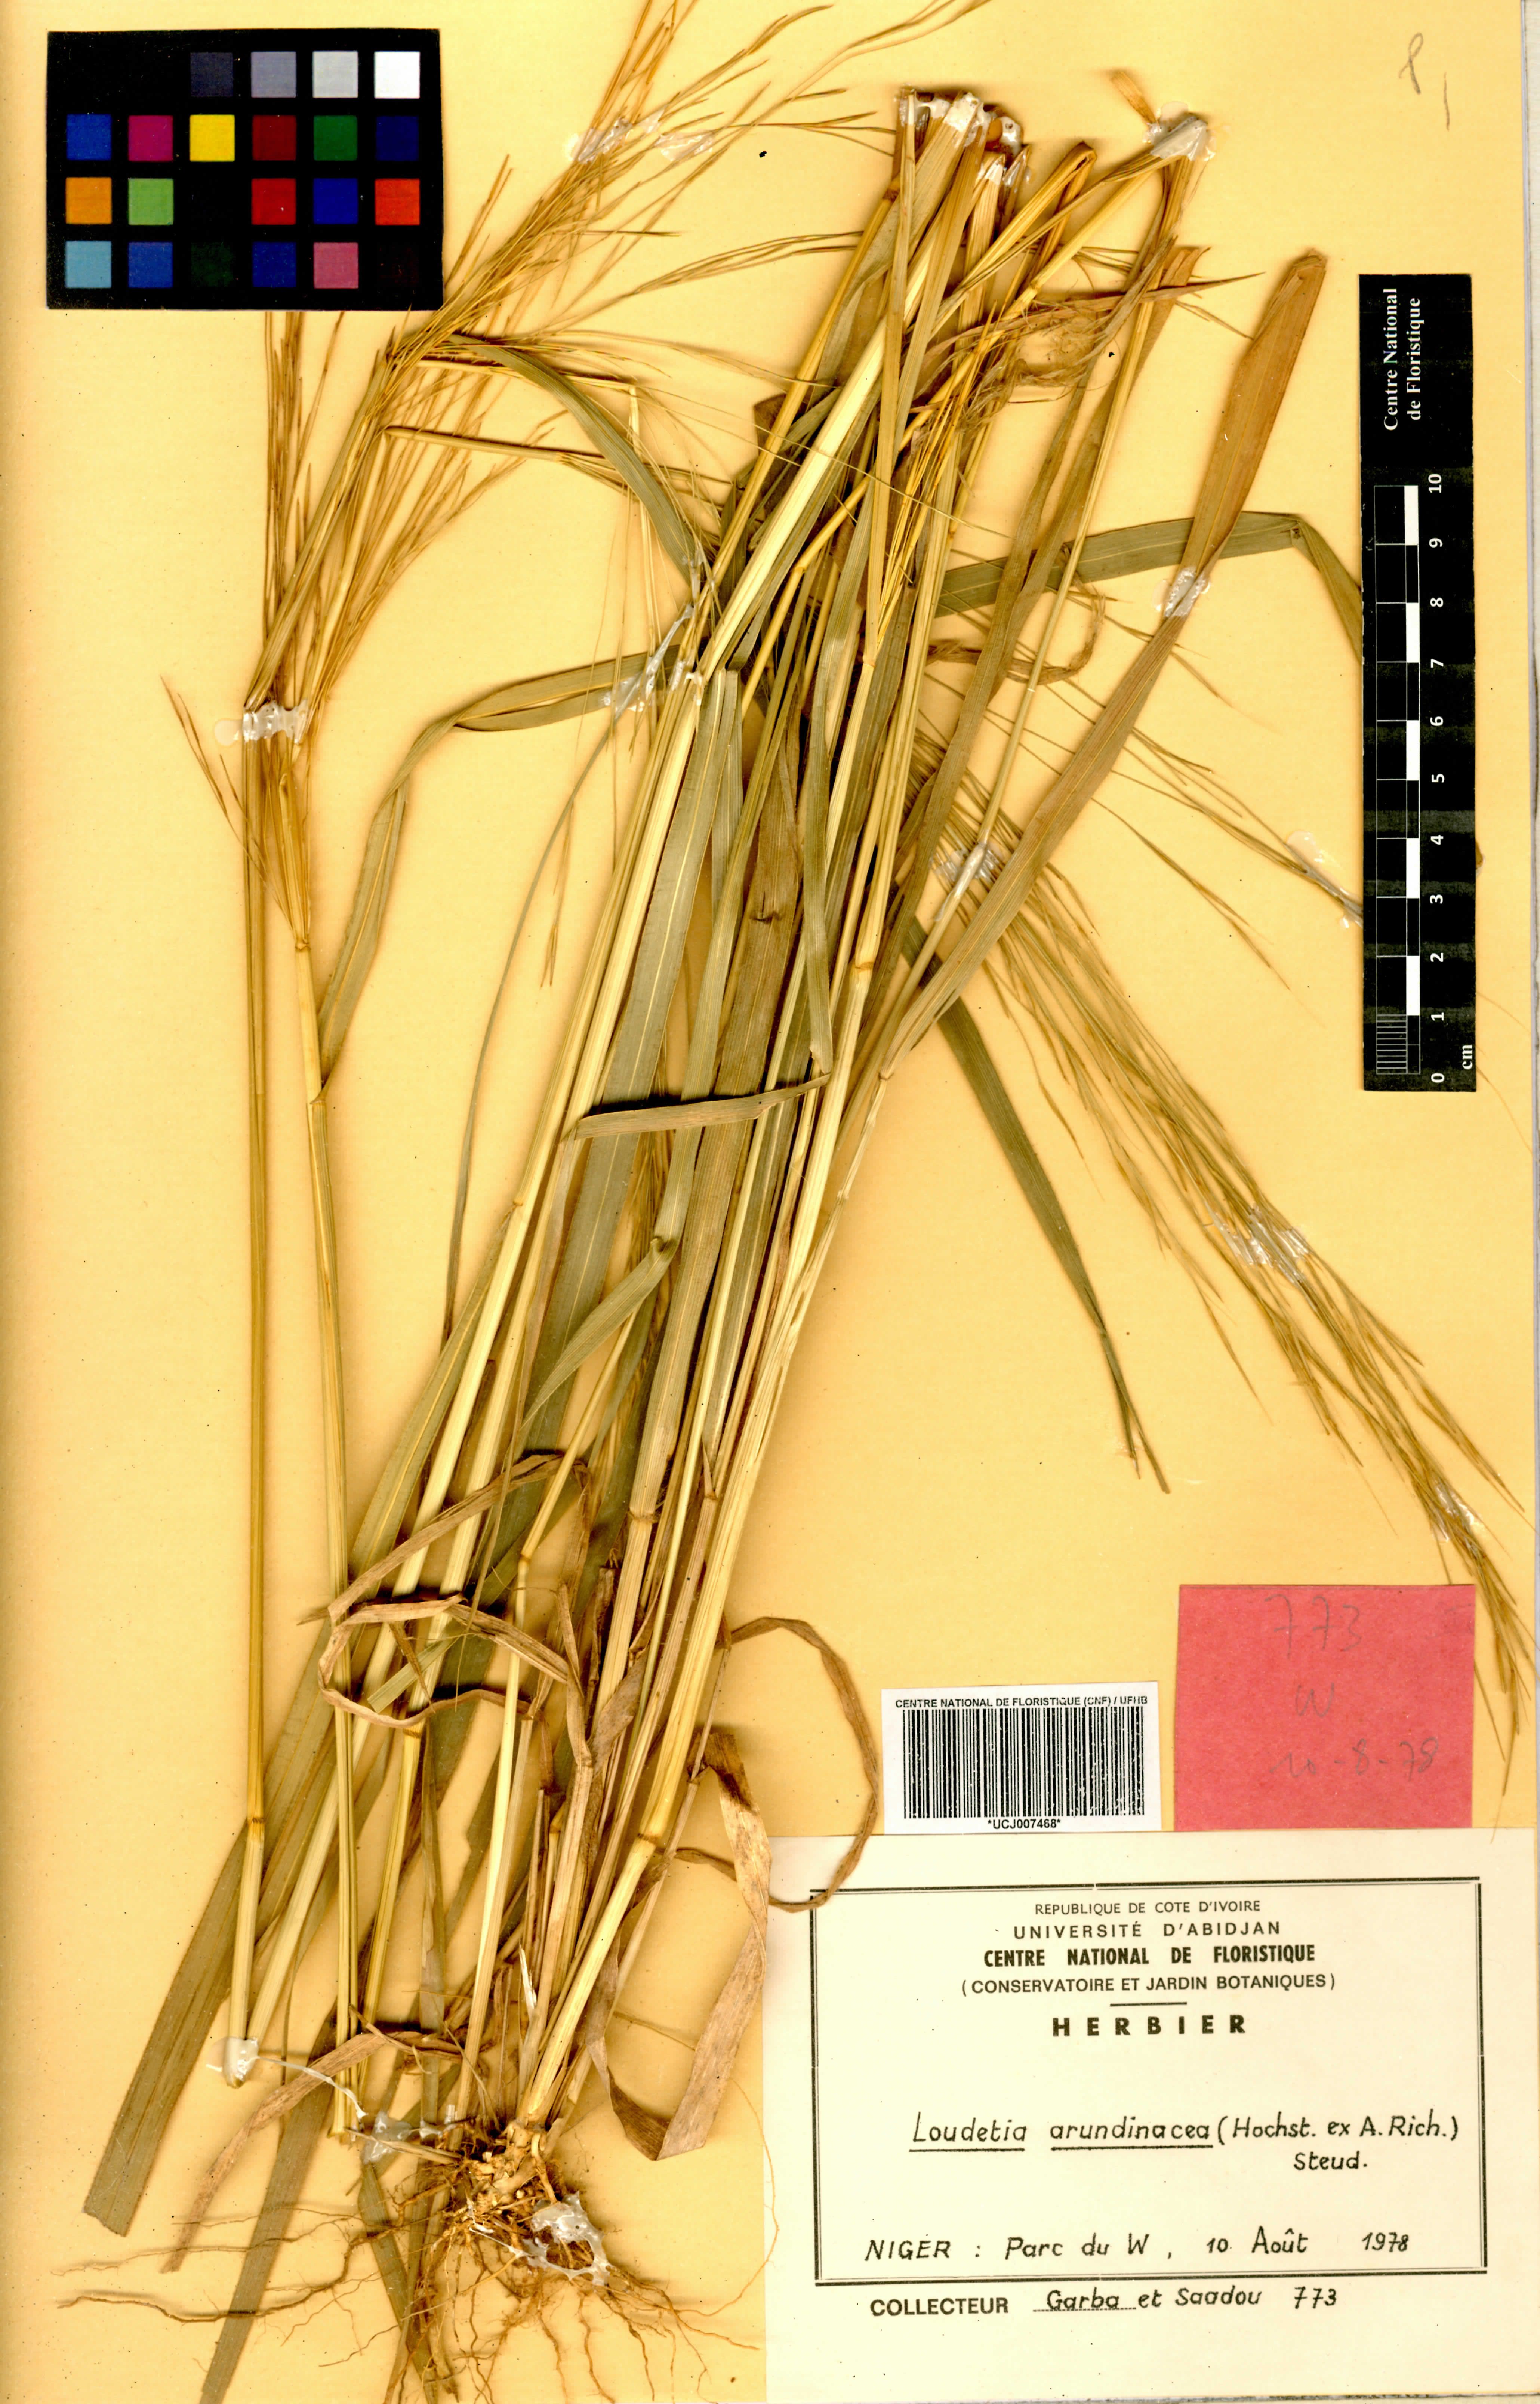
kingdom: Plantae
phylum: Tracheophyta
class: Liliopsida
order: Poales
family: Poaceae
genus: Loudetia
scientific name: Loudetia arundinacea
